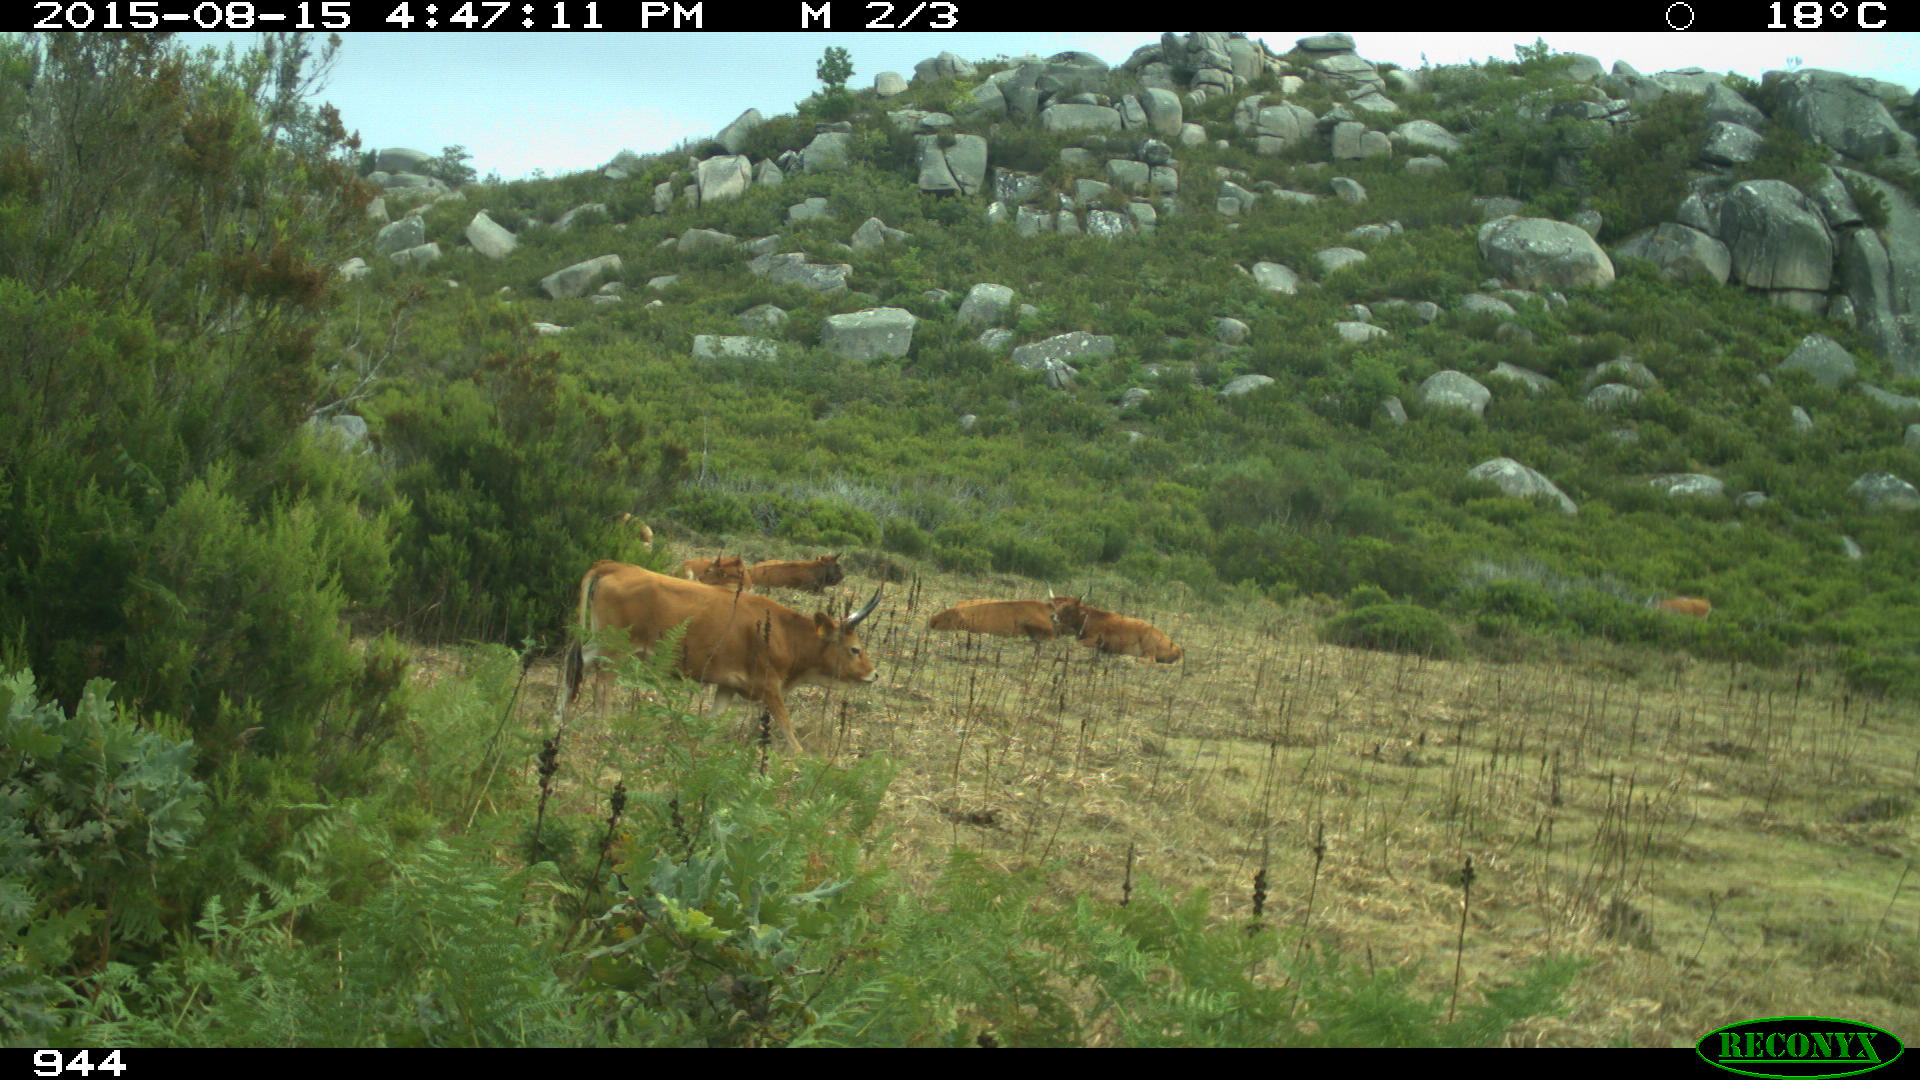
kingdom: Animalia
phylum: Chordata
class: Mammalia
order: Artiodactyla
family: Bovidae
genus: Bos
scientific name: Bos taurus
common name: Domesticated cattle
